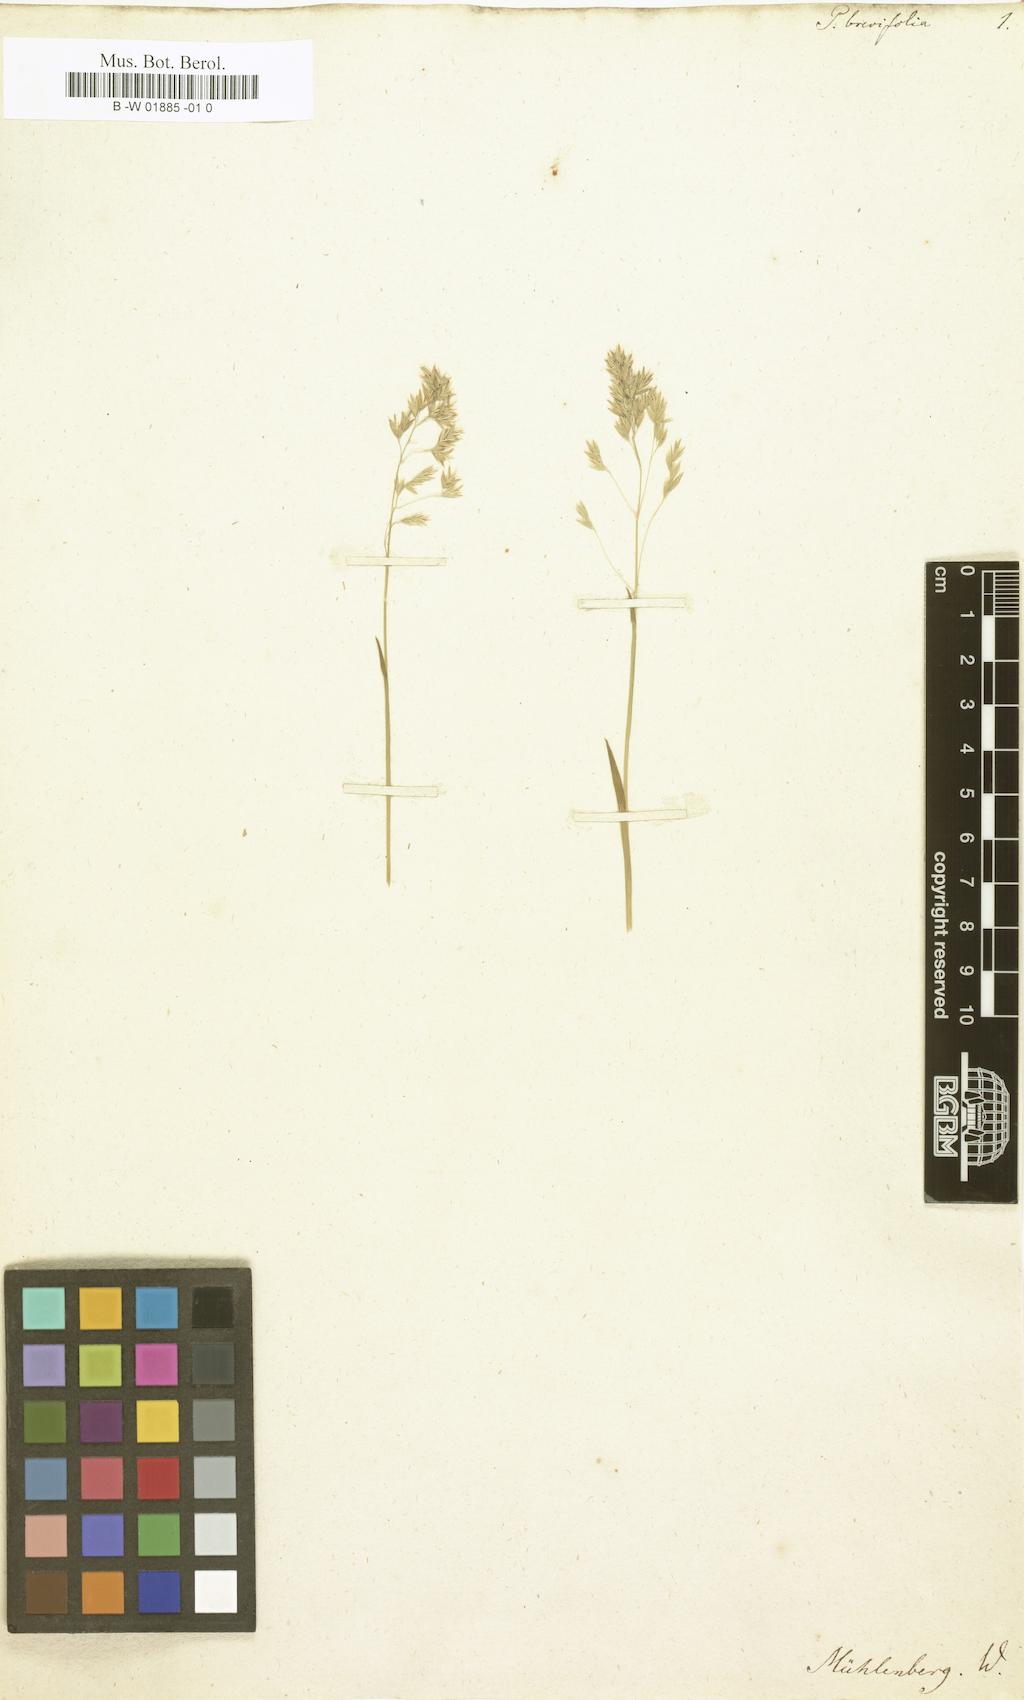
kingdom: Plantae
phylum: Tracheophyta
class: Liliopsida
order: Poales
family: Poaceae
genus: Poa
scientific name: Poa badensis
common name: Baden's bluegrass
